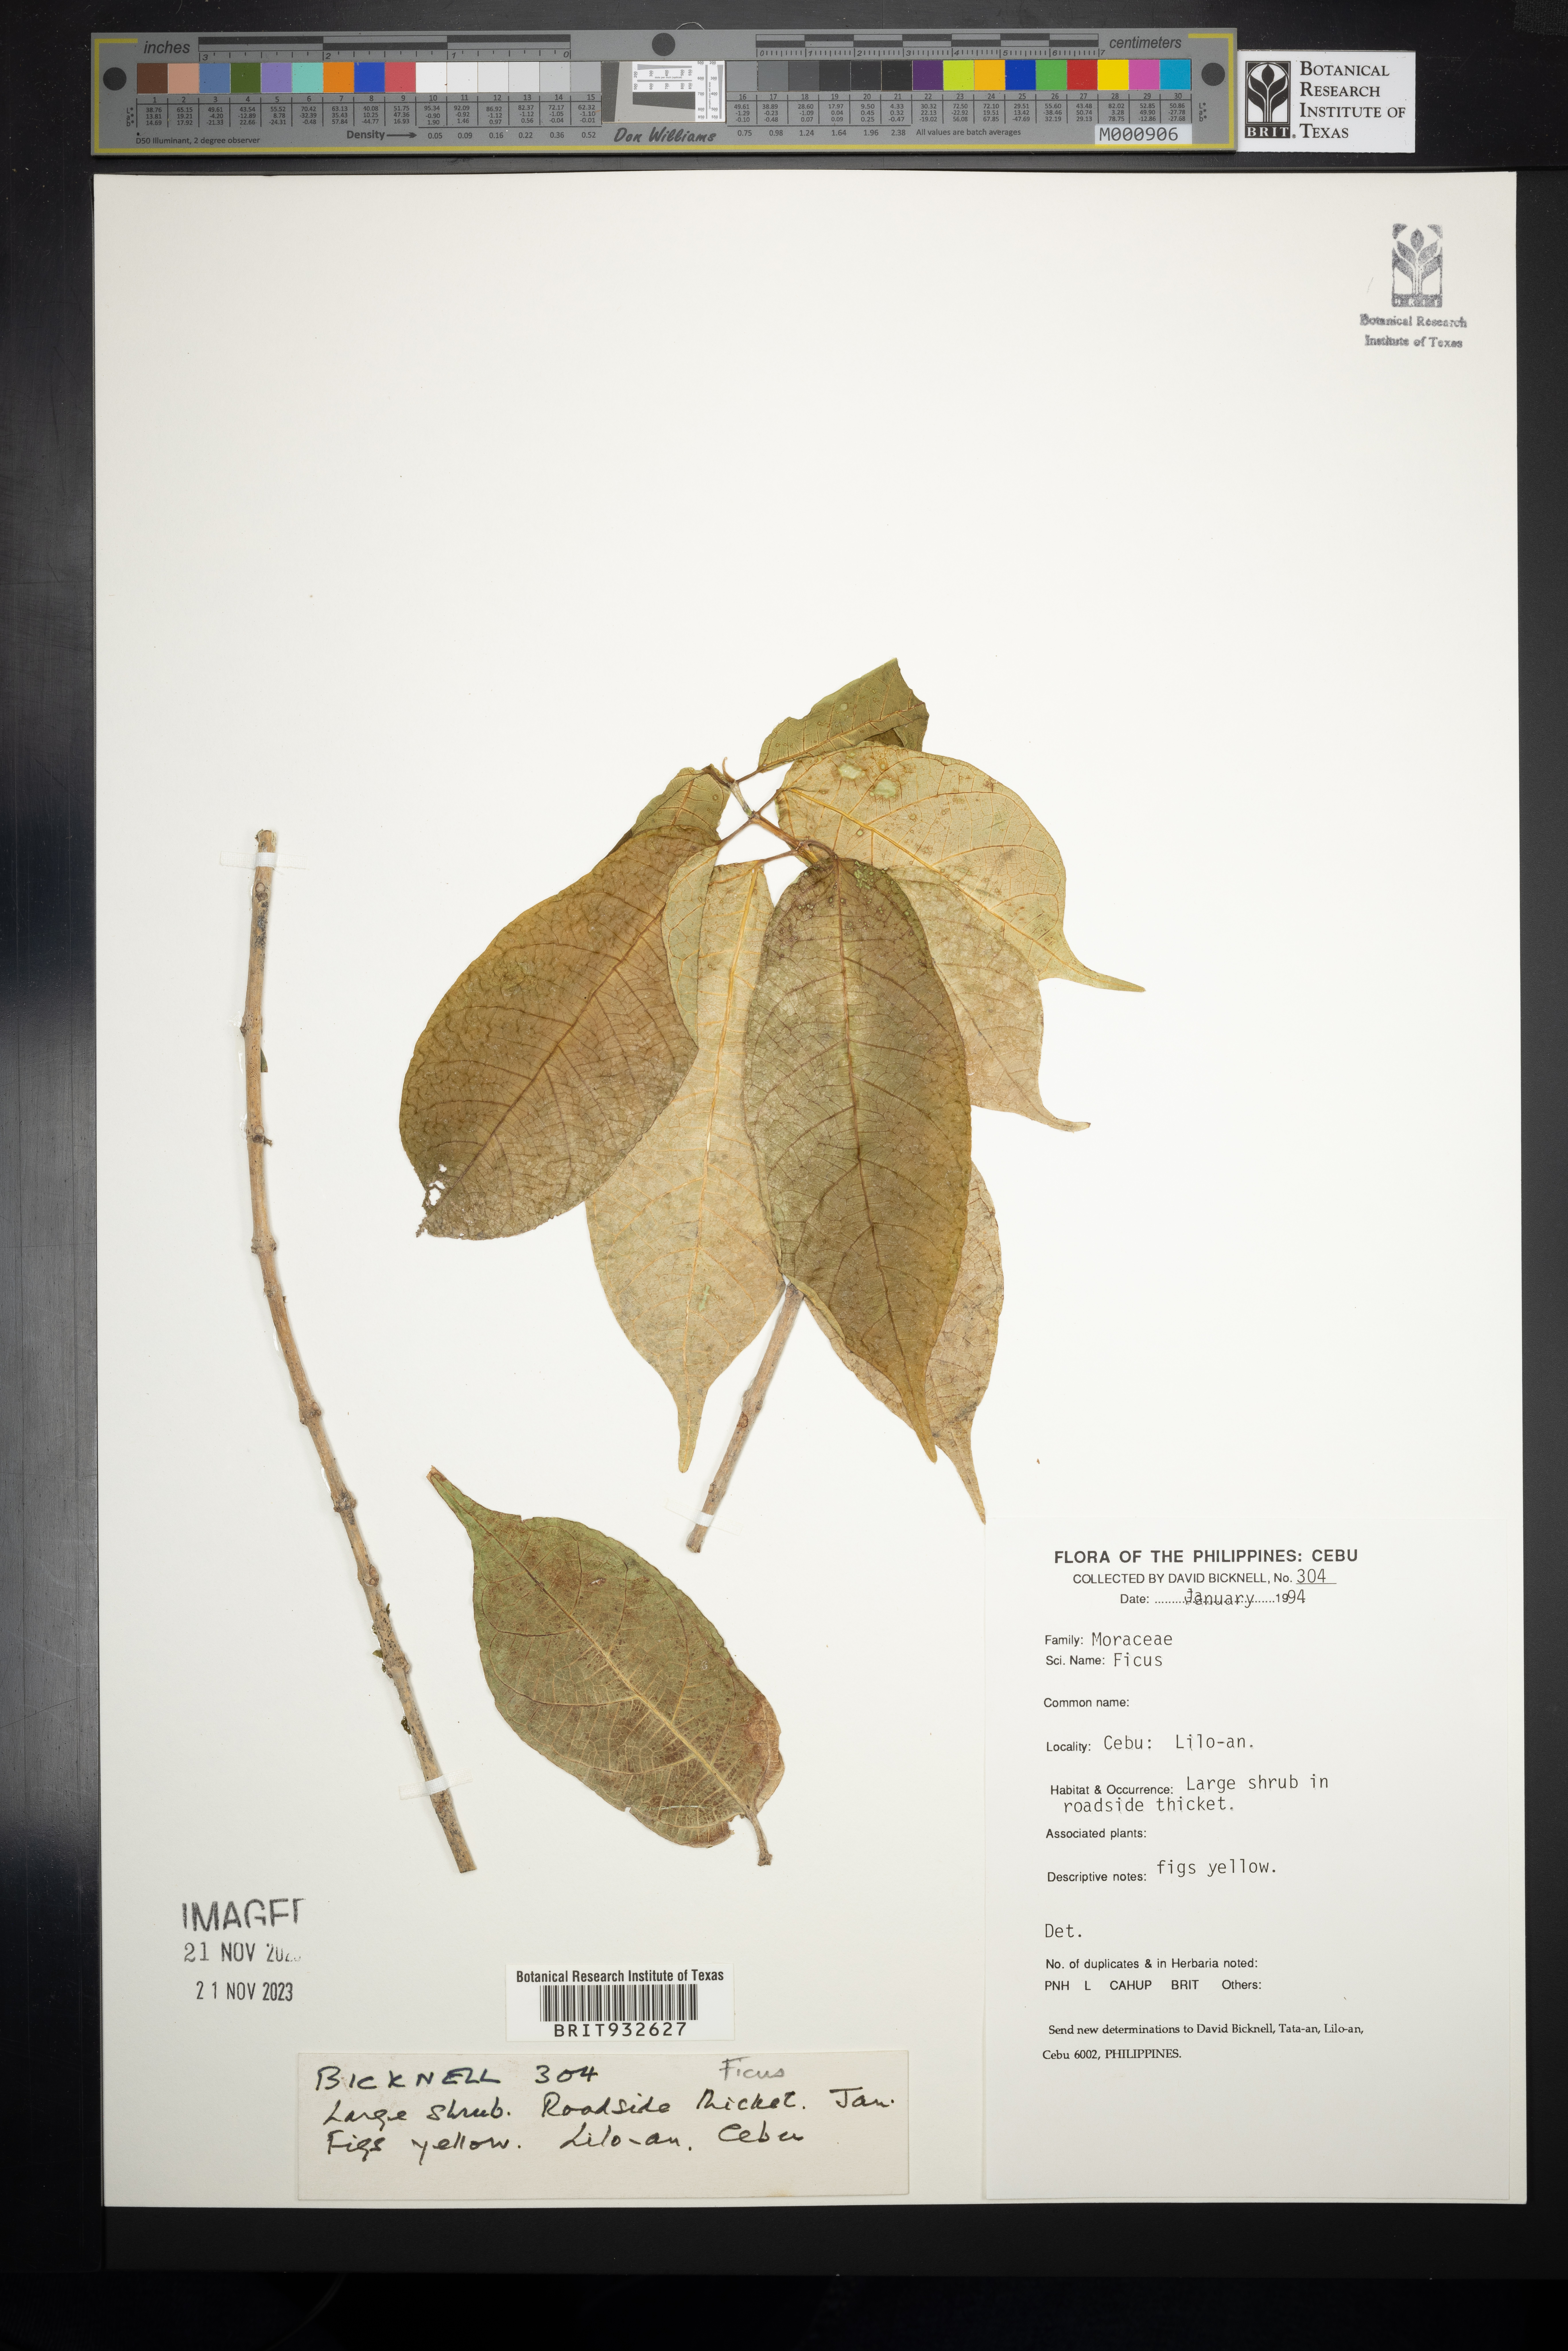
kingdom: Plantae
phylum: Tracheophyta
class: Magnoliopsida
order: Rosales
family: Moraceae
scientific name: Moraceae
